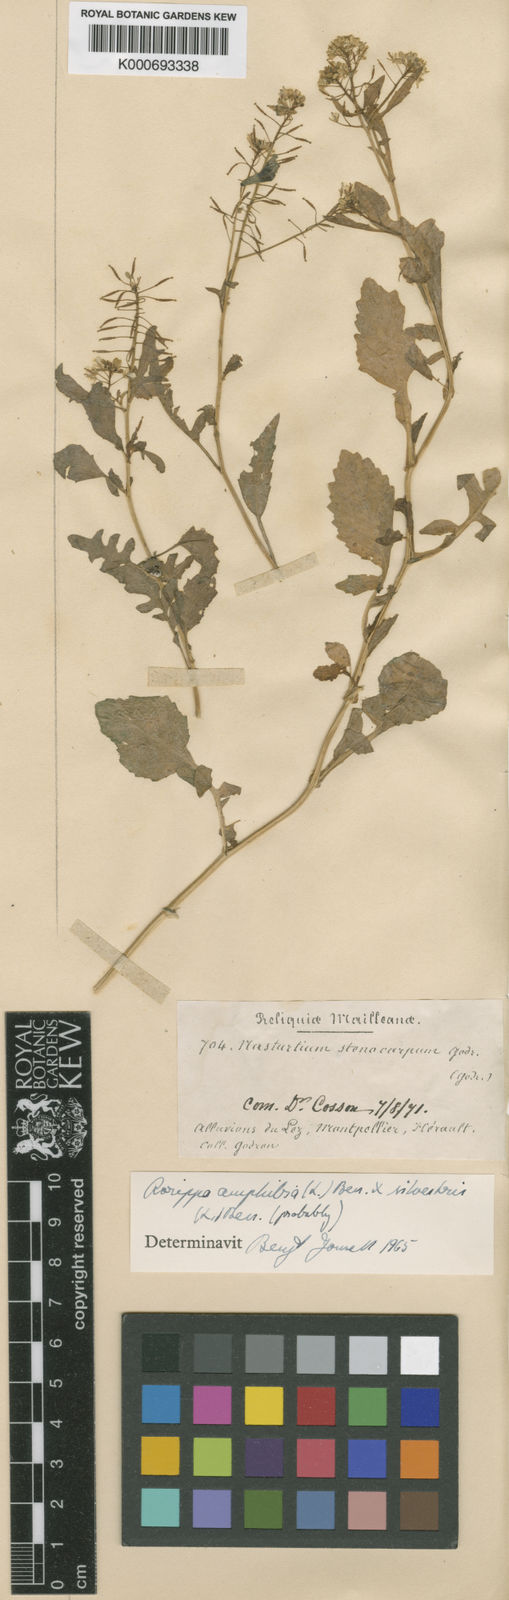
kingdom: Plantae
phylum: Tracheophyta
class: Magnoliopsida
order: Brassicales
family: Brassicaceae
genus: Rorippa
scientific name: Rorippa anceps
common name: Rorippa
